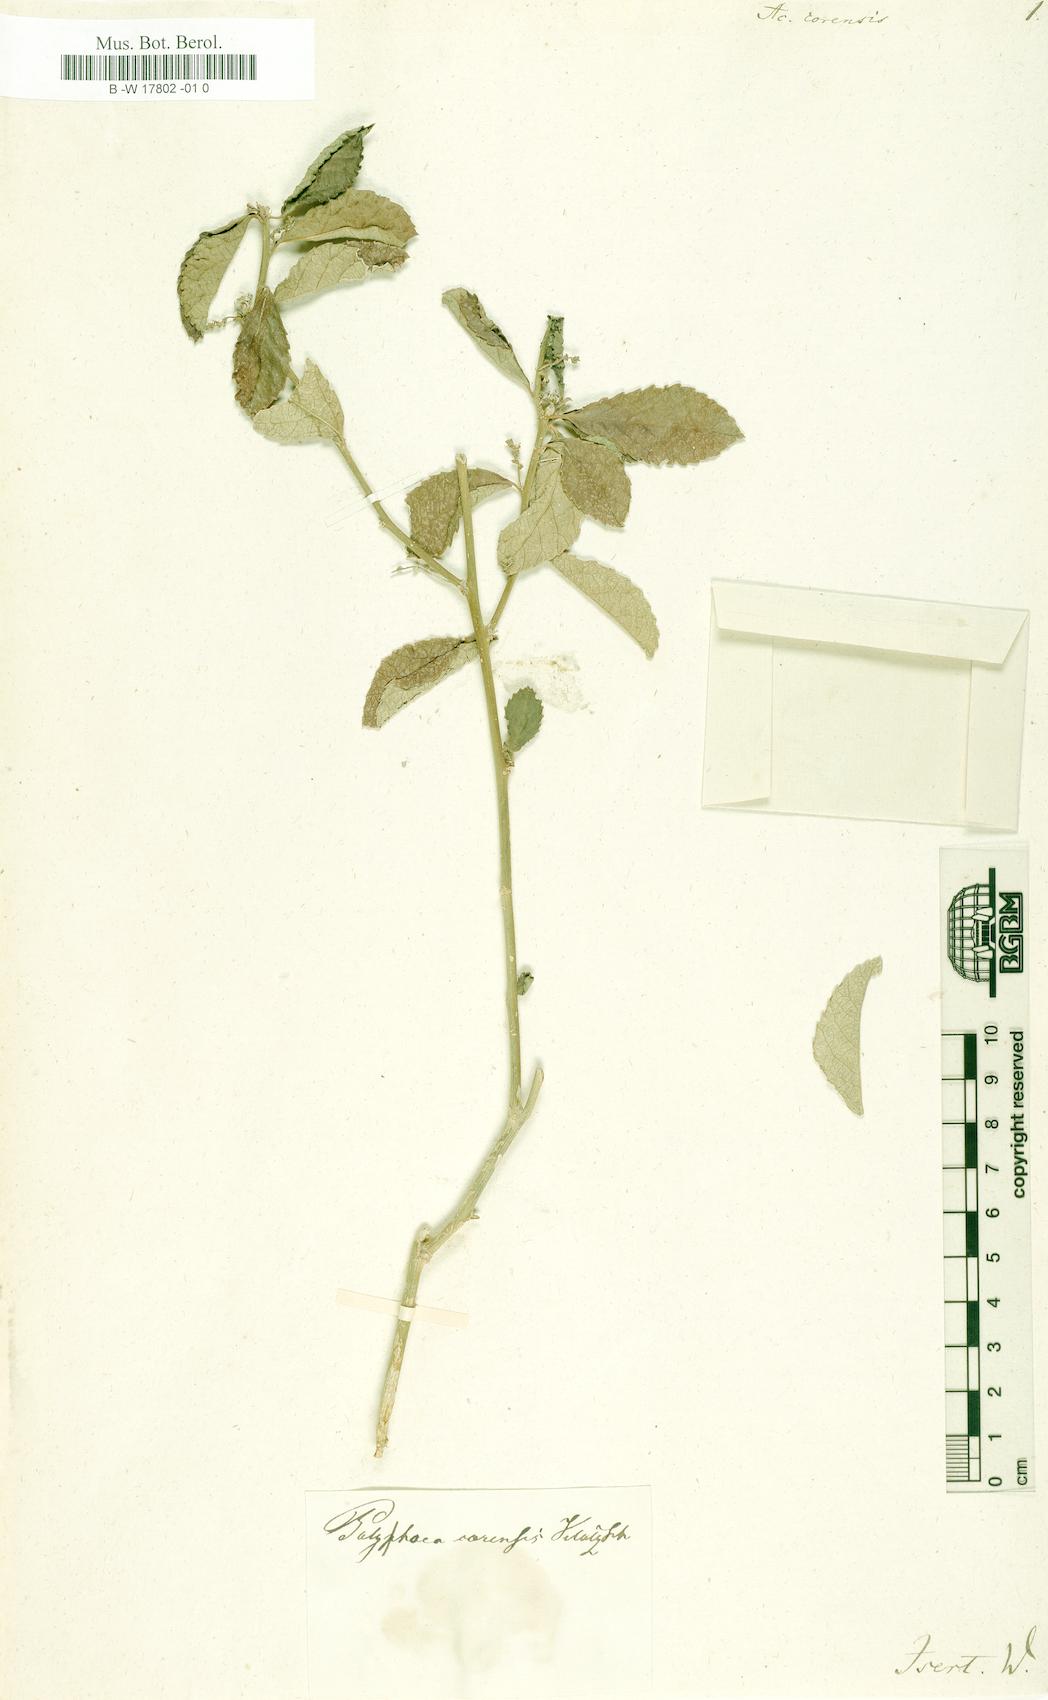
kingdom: Plantae
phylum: Tracheophyta
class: Magnoliopsida
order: Malpighiales
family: Euphorbiaceae
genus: Bernardia
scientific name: Bernardia corensis
